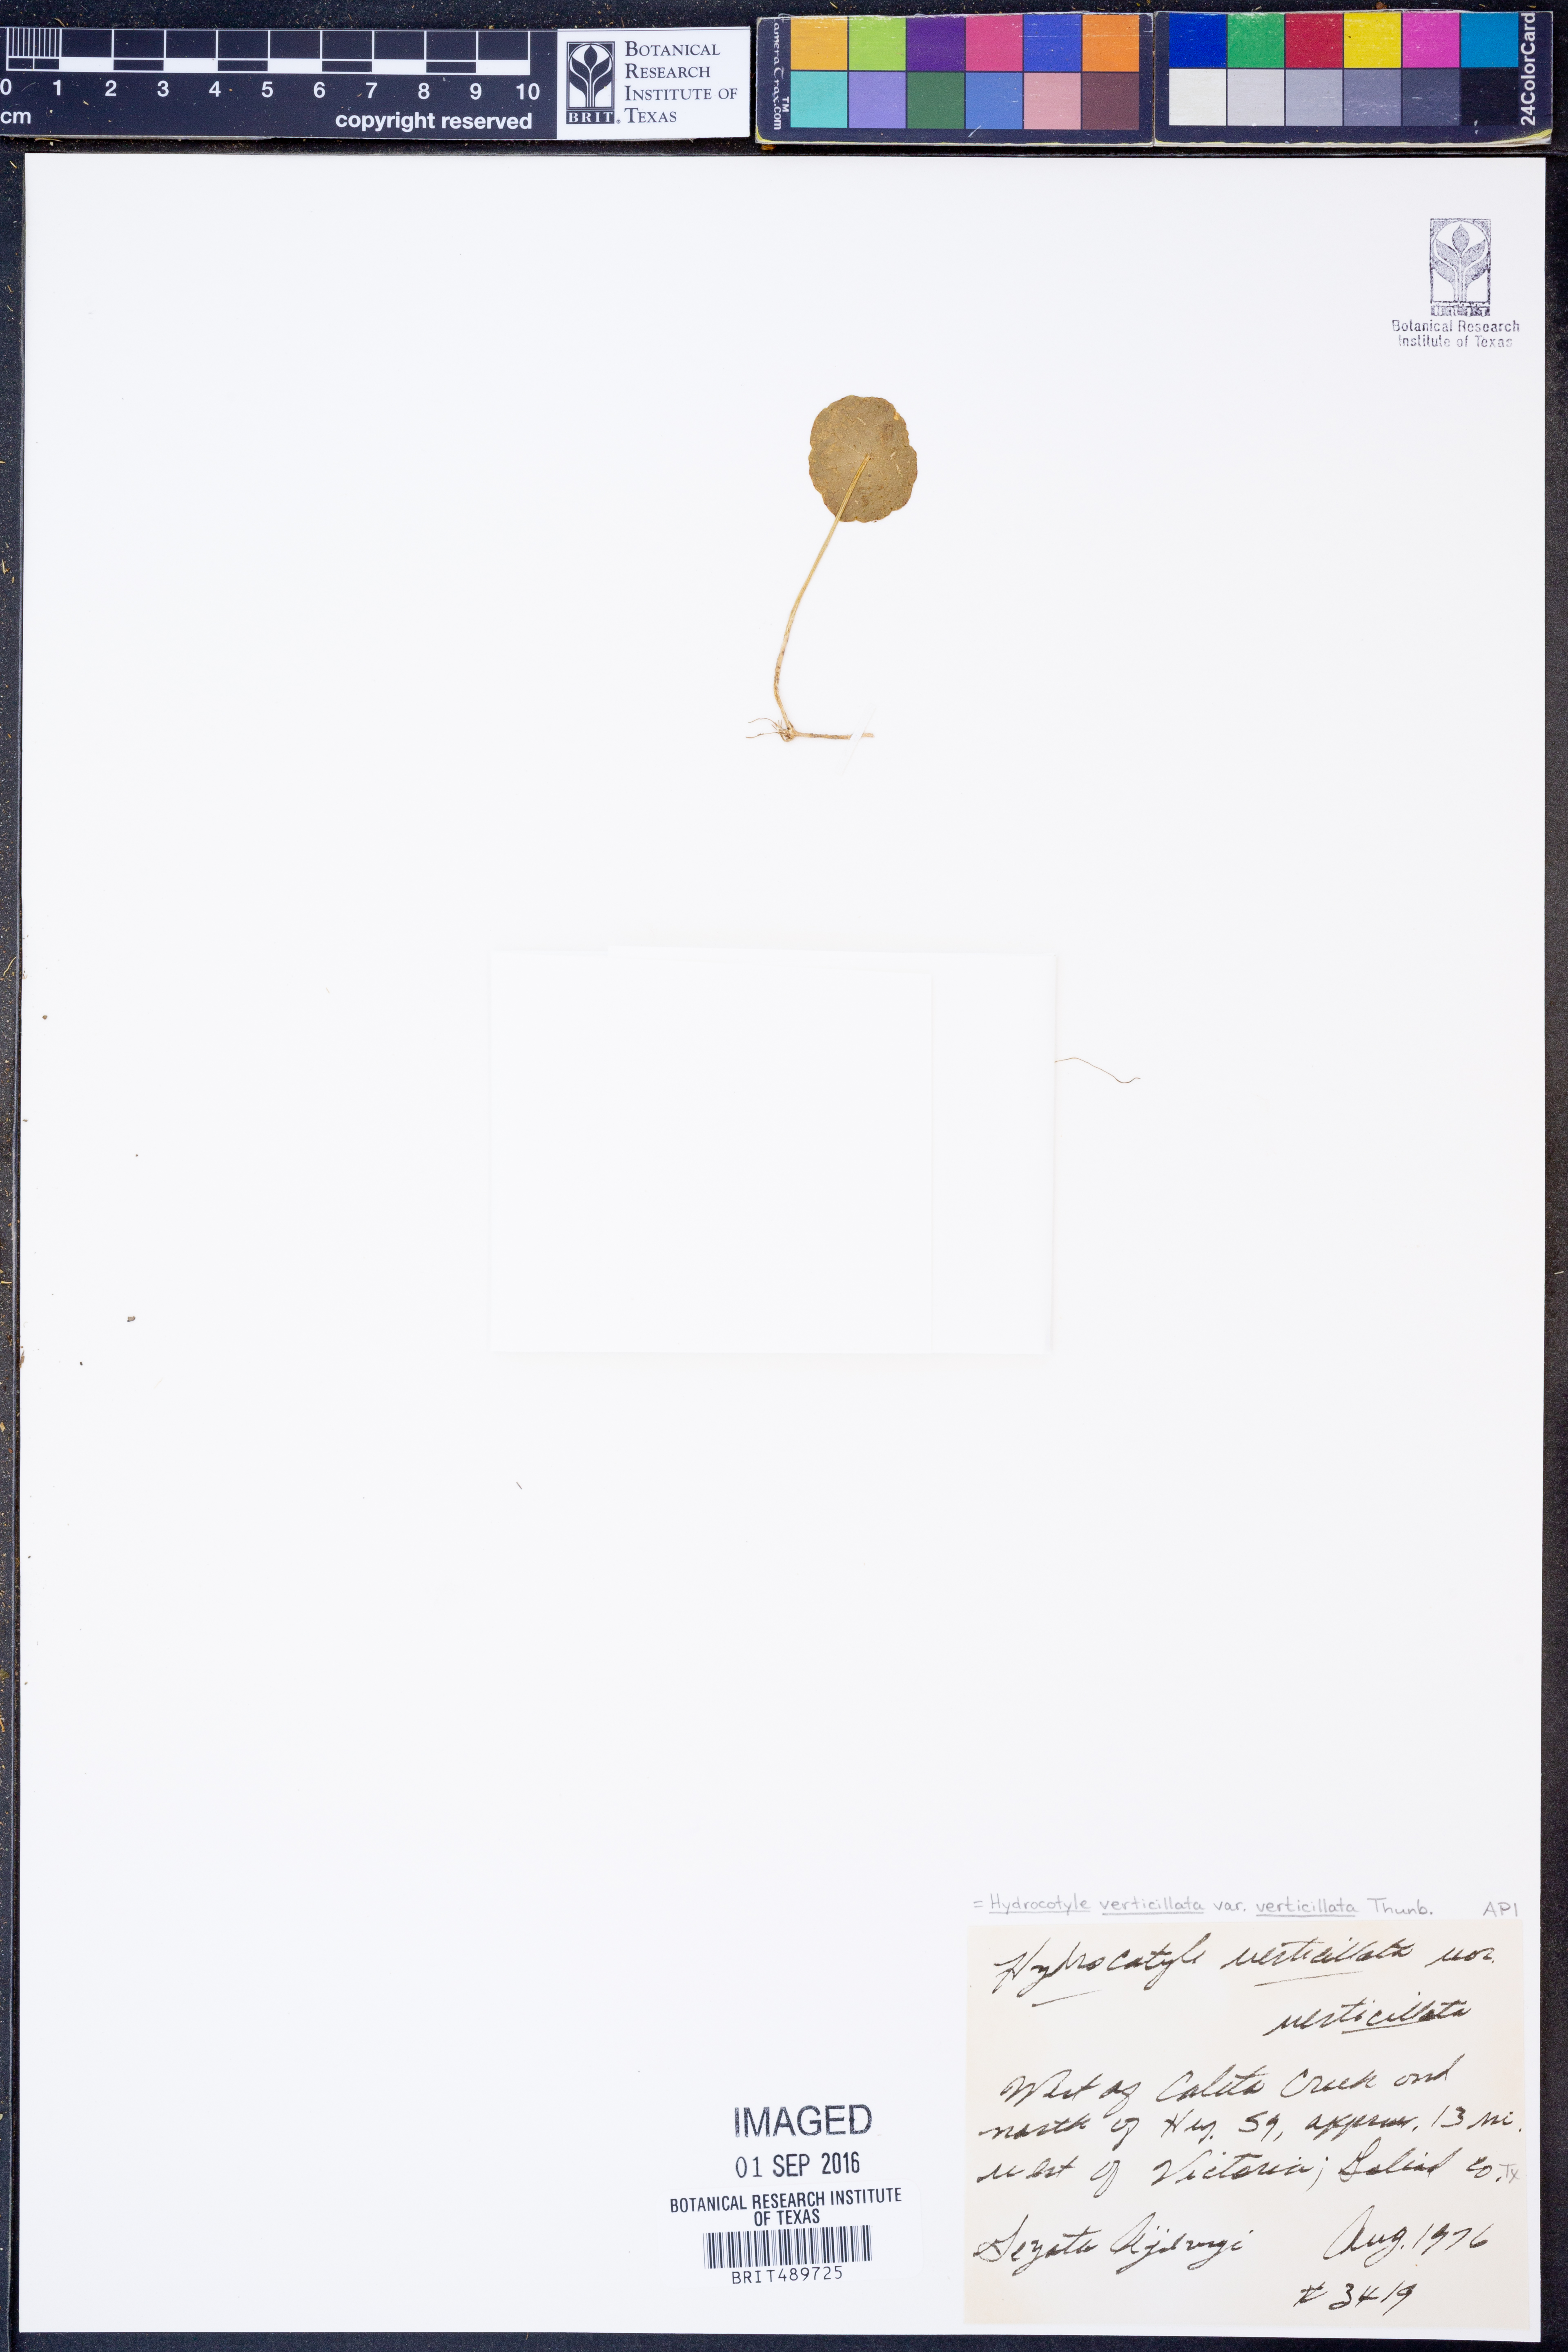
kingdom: Plantae
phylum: Tracheophyta
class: Magnoliopsida
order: Apiales
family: Araliaceae
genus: Hydrocotyle
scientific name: Hydrocotyle verticillata
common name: Whorled marshpennywort
